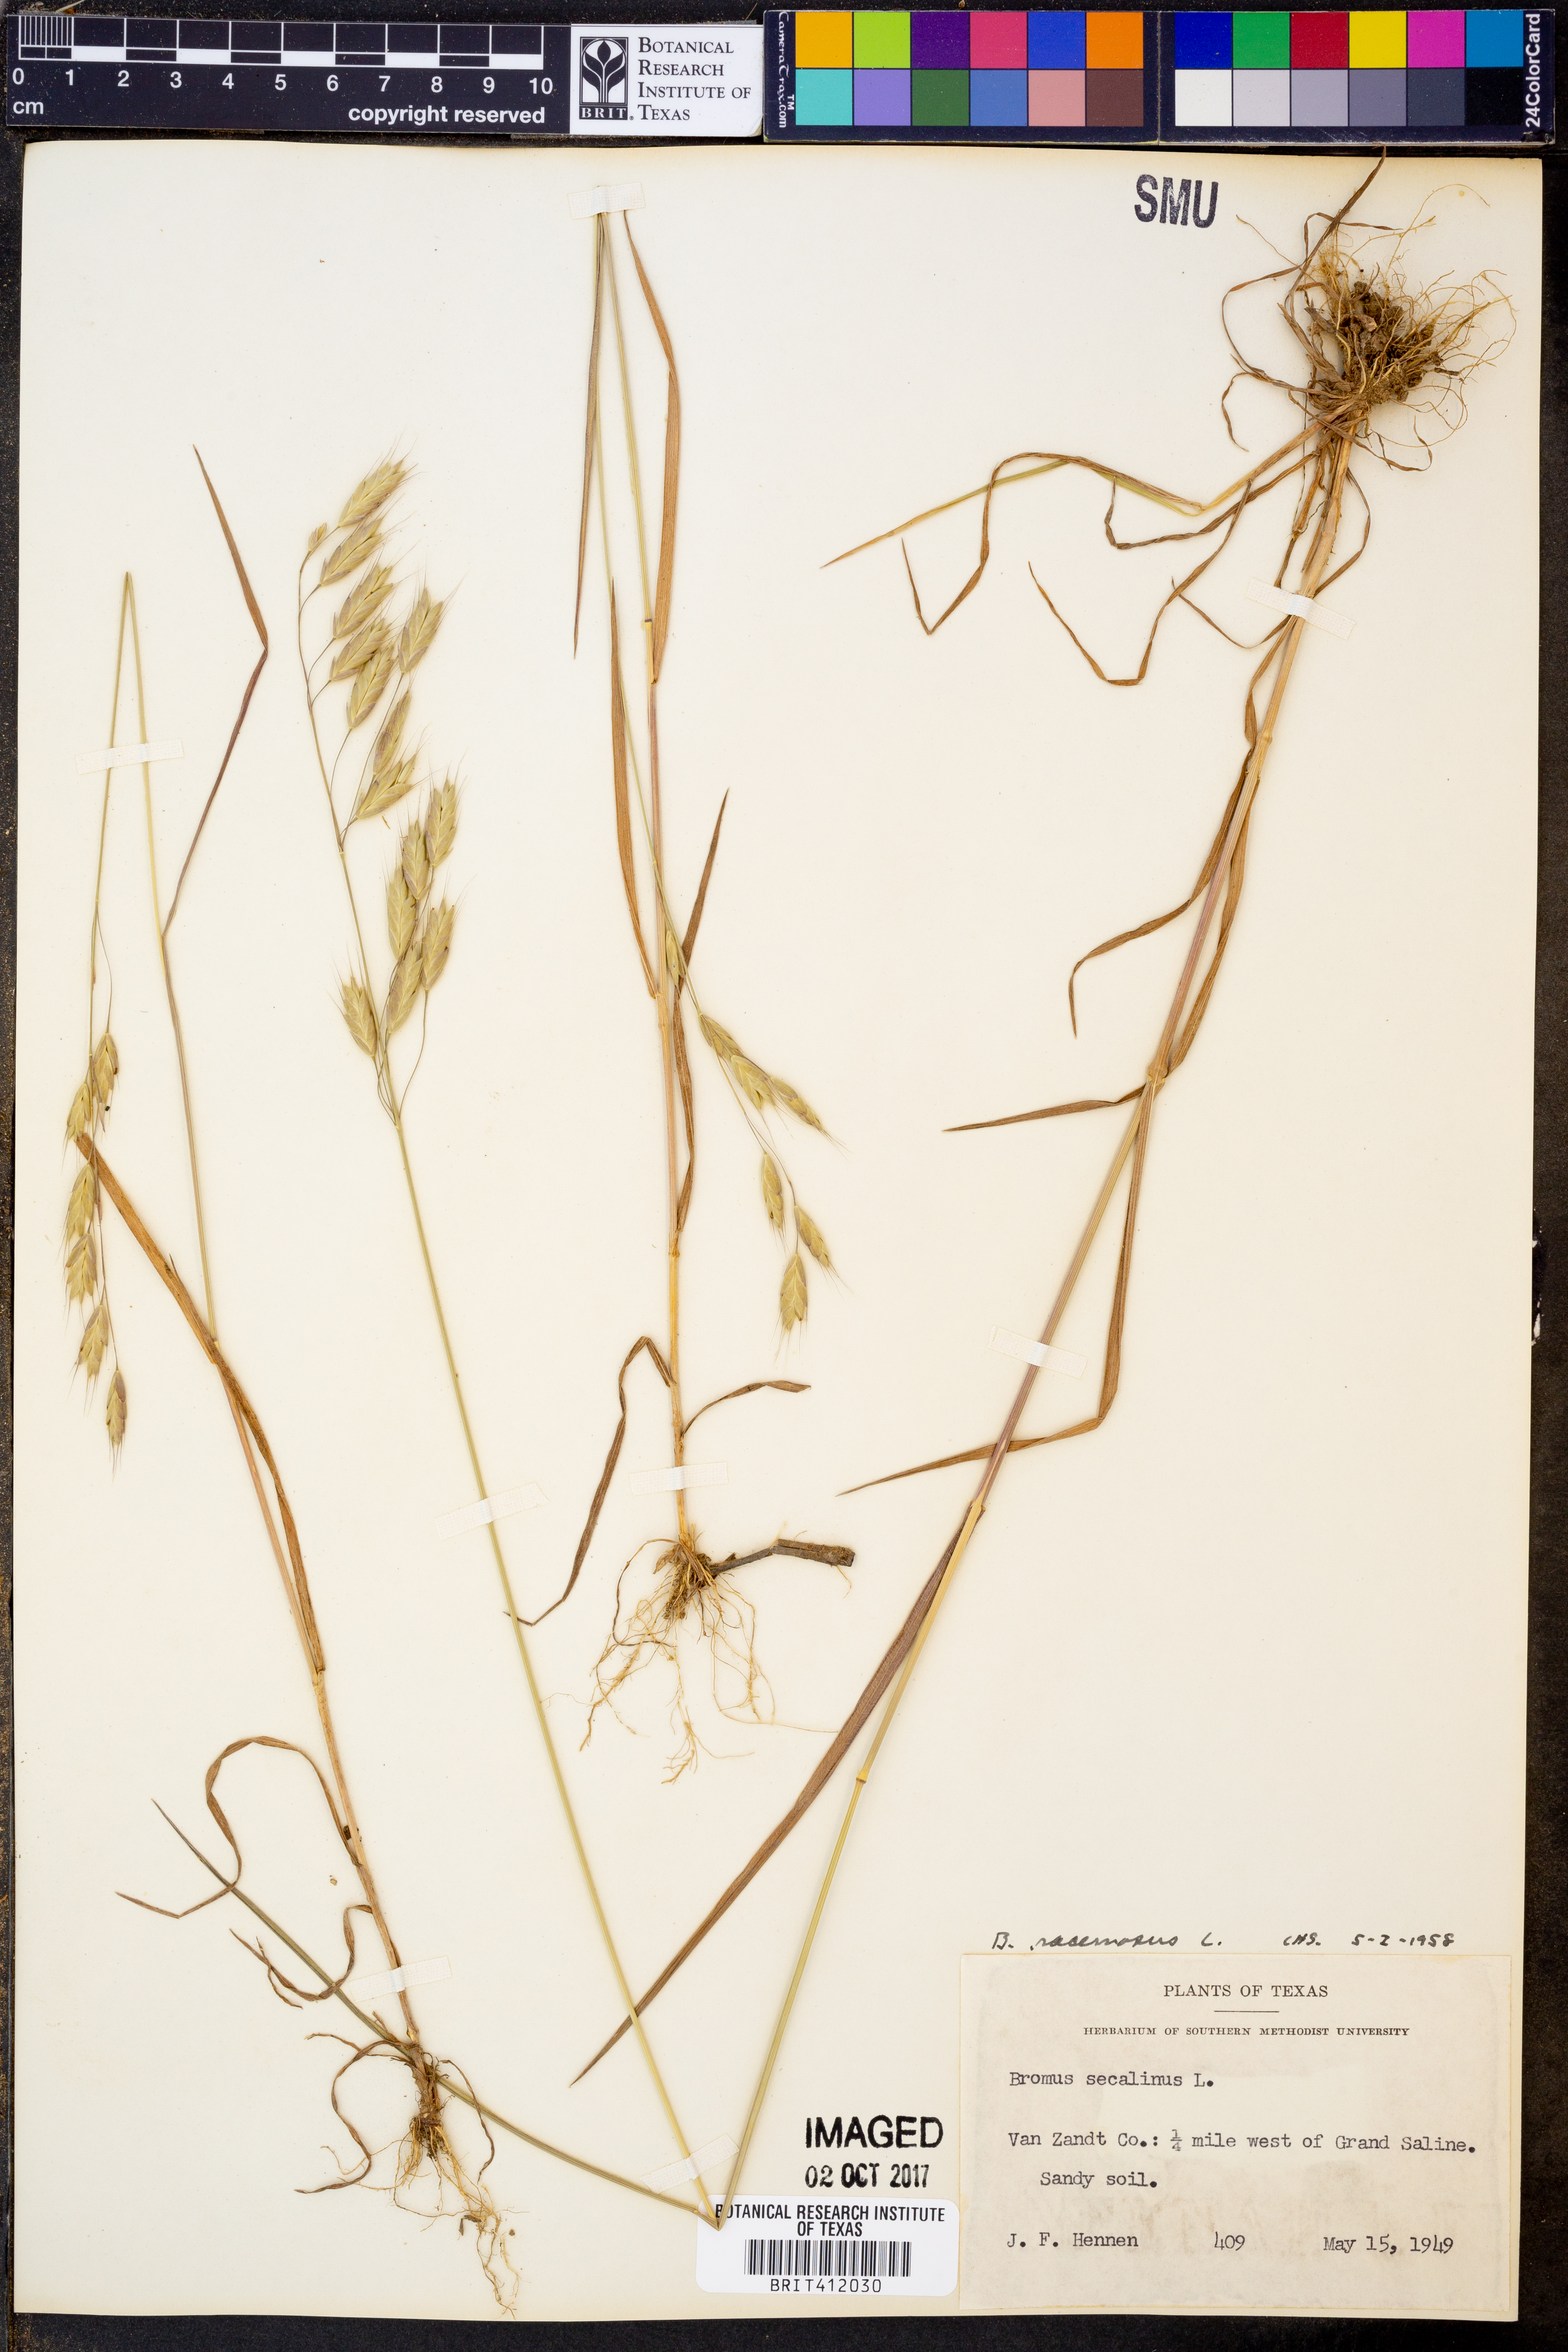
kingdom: Plantae
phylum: Tracheophyta
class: Liliopsida
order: Poales
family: Poaceae
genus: Bromus
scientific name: Bromus racemosus
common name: Bald brome
